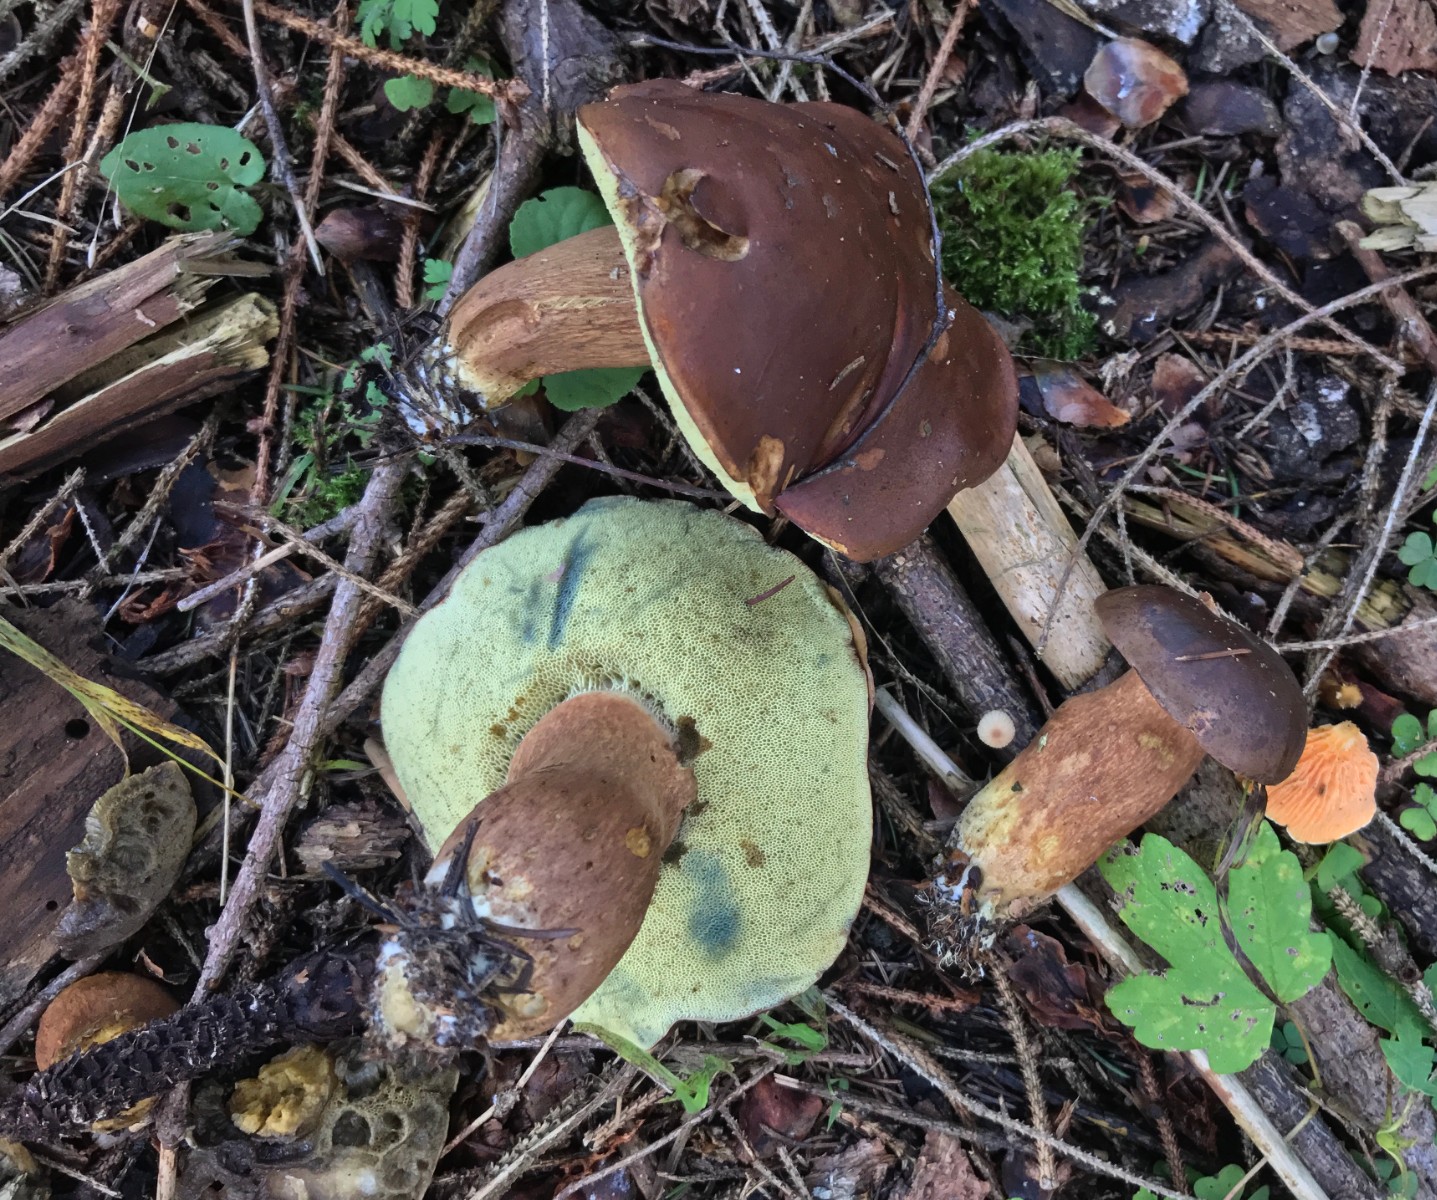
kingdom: Fungi
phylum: Basidiomycota
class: Agaricomycetes
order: Boletales
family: Boletaceae
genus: Imleria
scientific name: Imleria badia
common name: brunstokket rørhat
